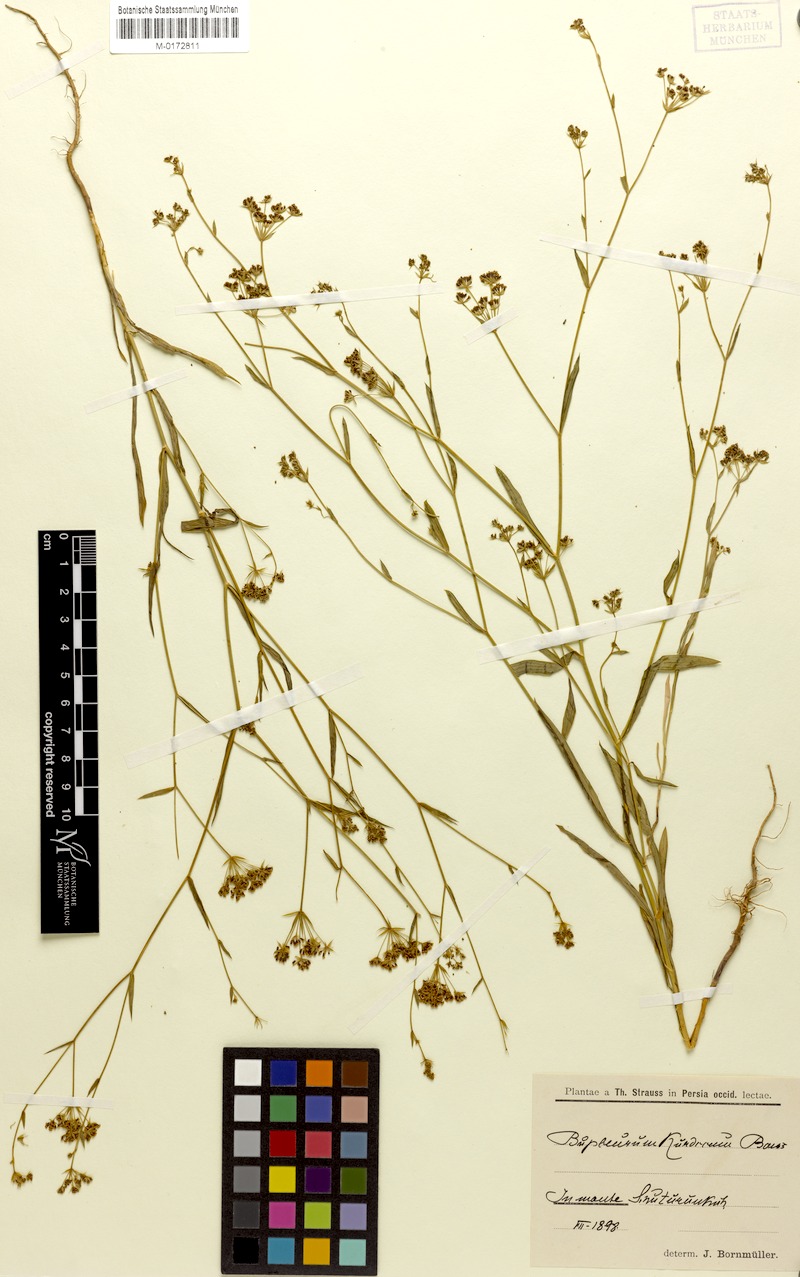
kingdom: Plantae
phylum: Tracheophyta
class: Magnoliopsida
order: Apiales
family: Apiaceae
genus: Bupleurum
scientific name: Bupleurum kurdicum
